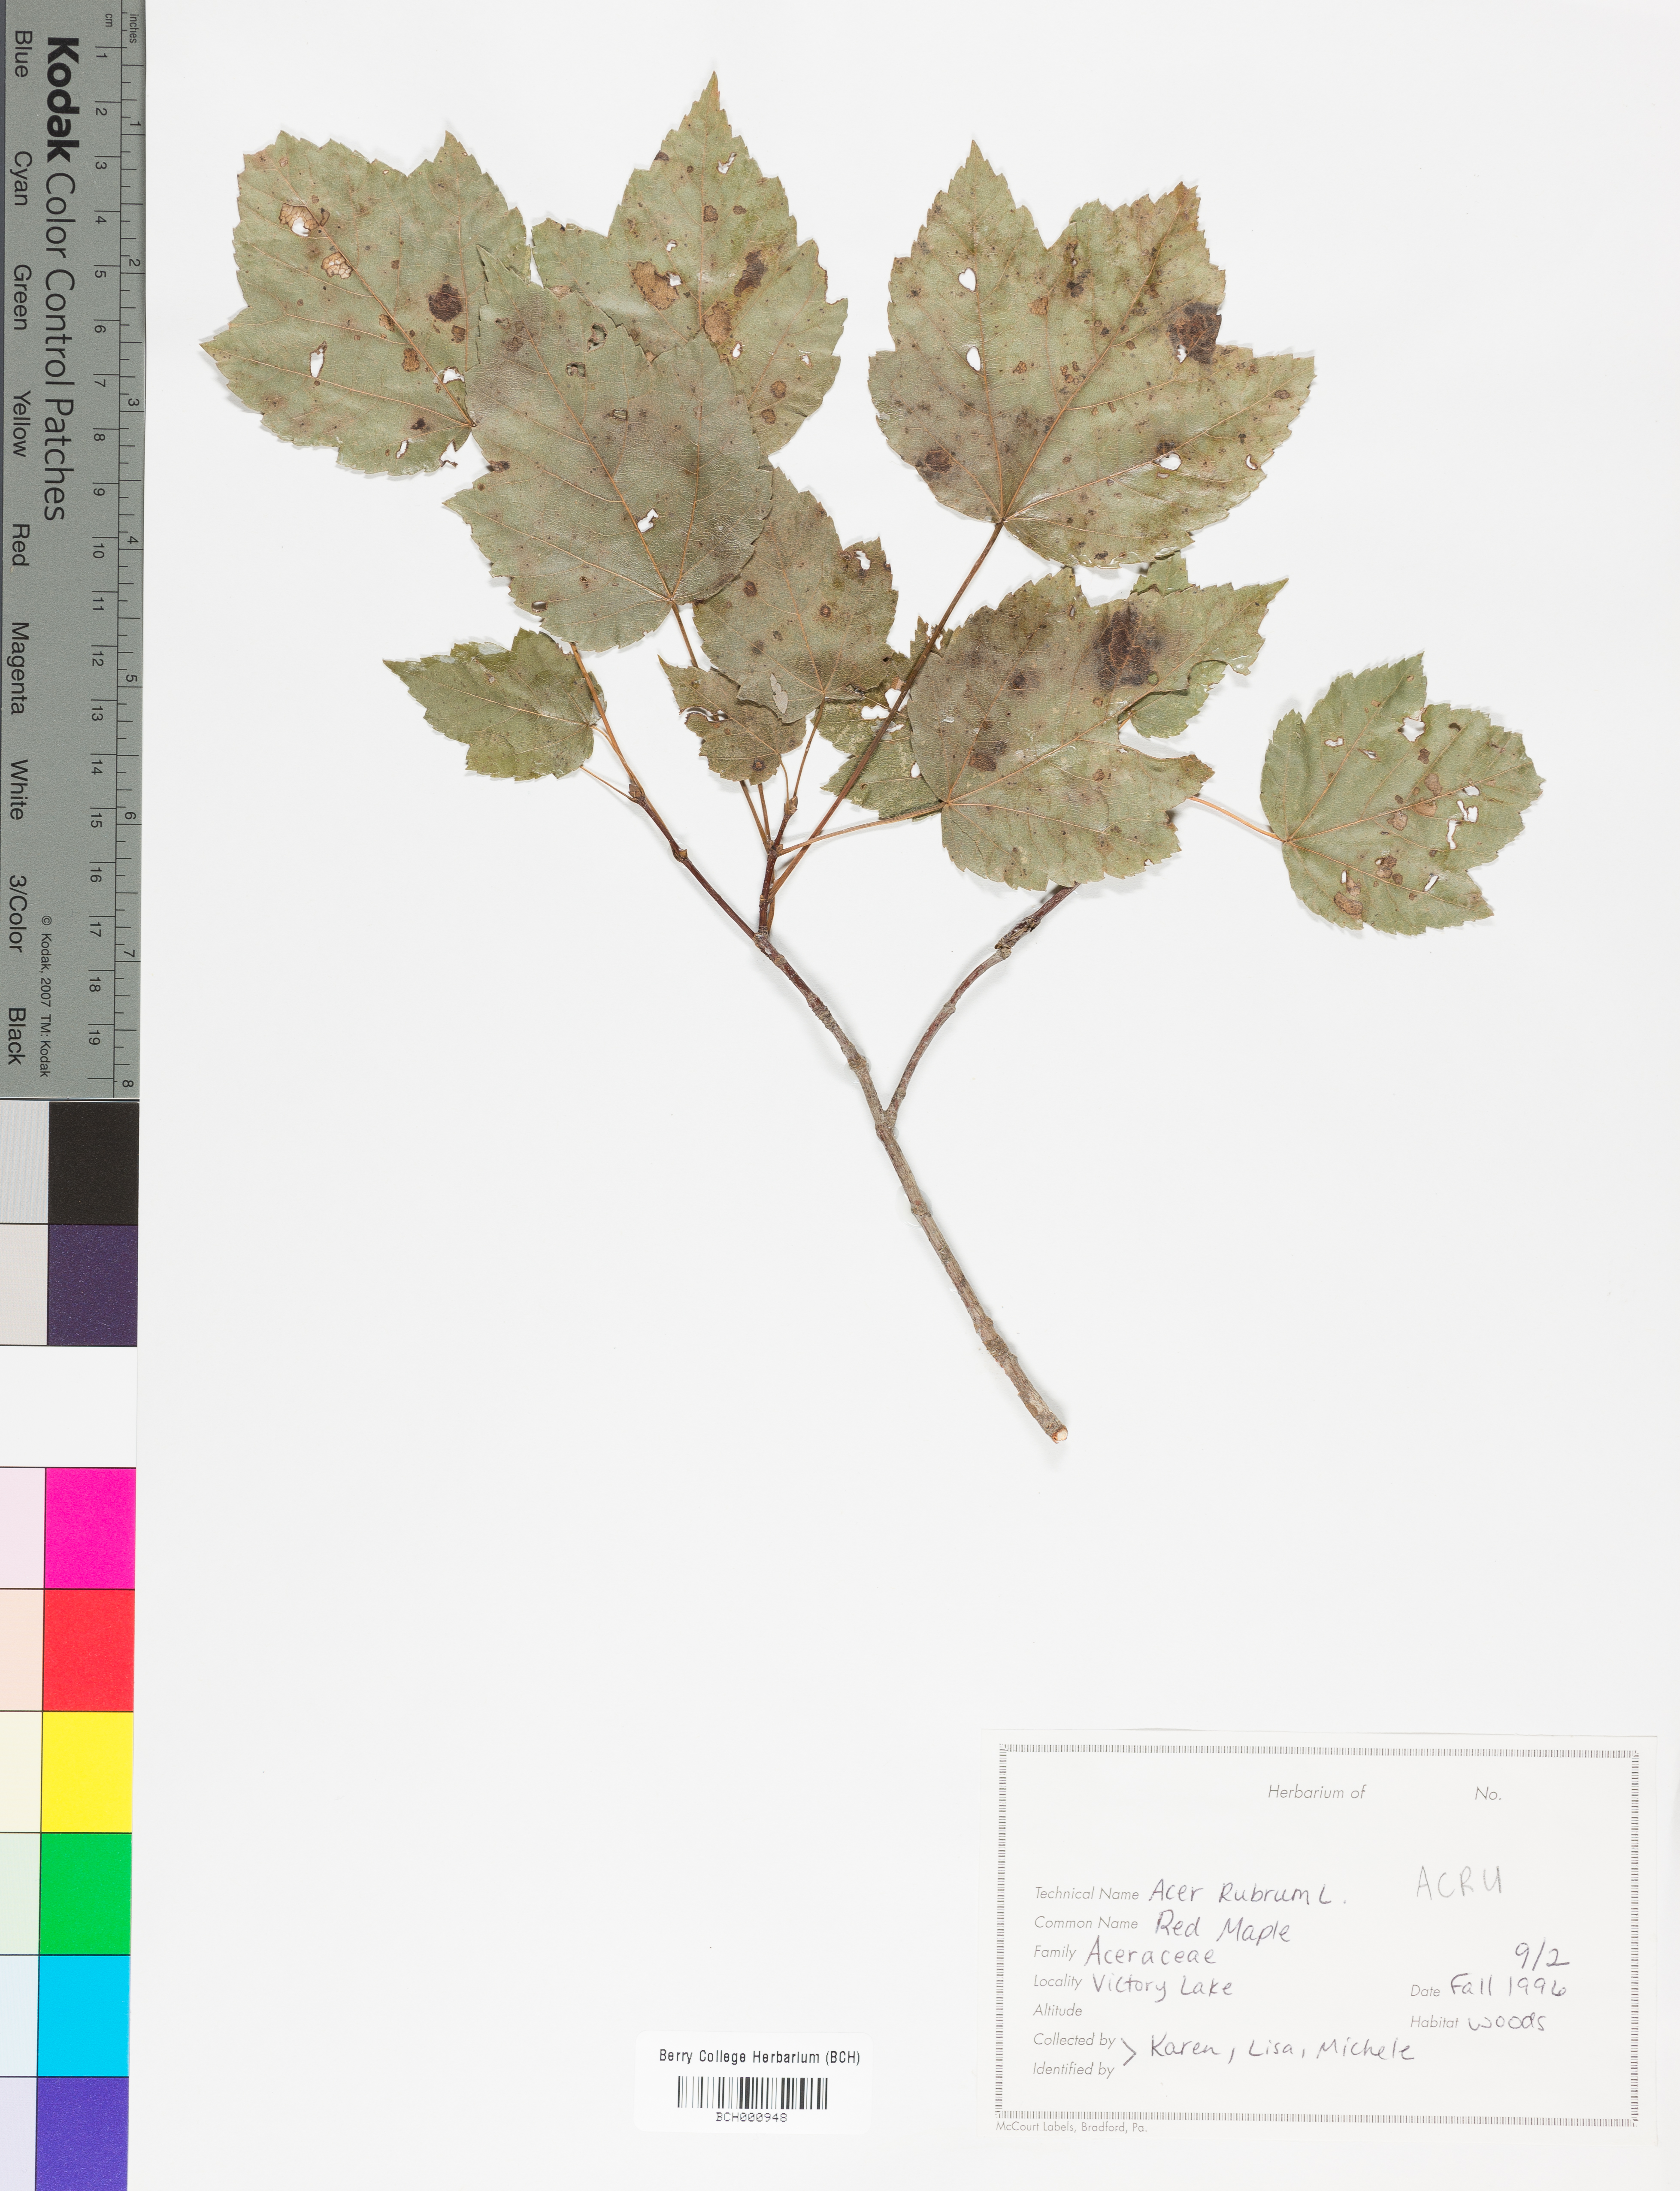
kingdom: Plantae
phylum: Tracheophyta
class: Magnoliopsida
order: Sapindales
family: Sapindaceae
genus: Acer
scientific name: Acer rubrum
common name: Red maple
